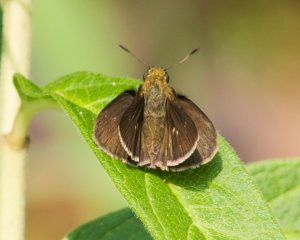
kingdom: Animalia
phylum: Arthropoda
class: Insecta
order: Lepidoptera
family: Hesperiidae
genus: Euphyes
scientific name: Euphyes vestris
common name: Dun Skipper
